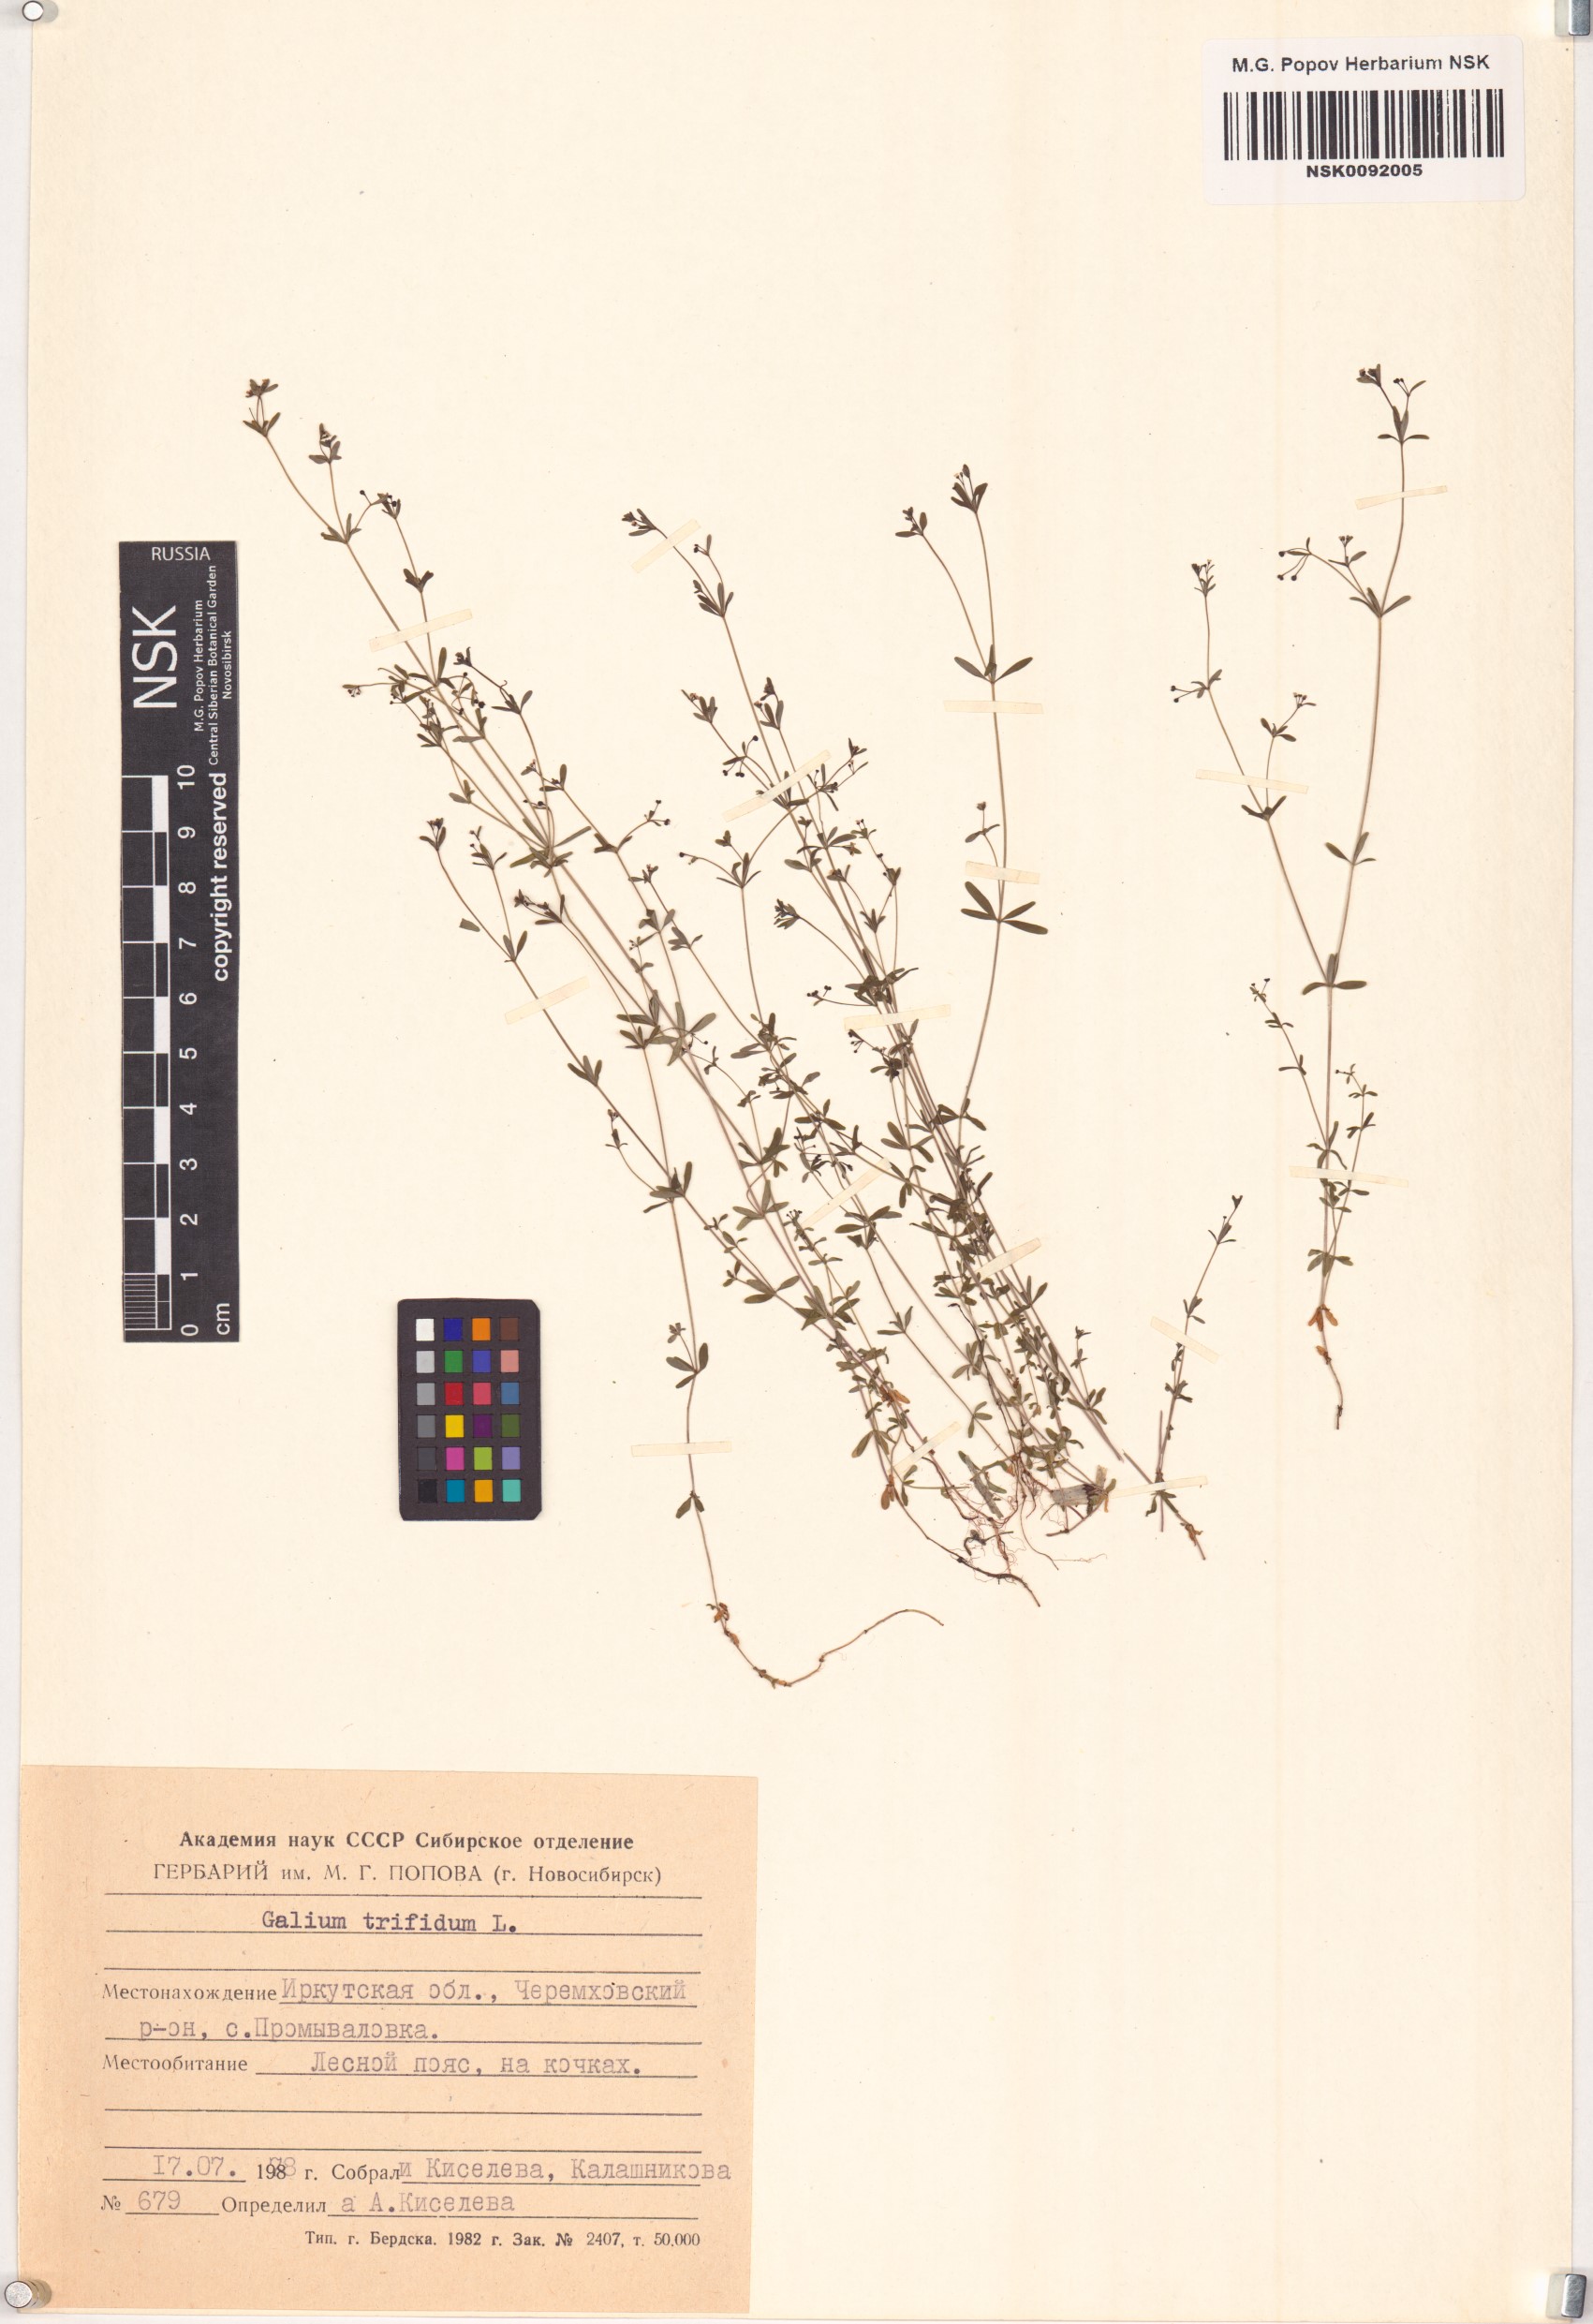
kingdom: Plantae
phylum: Tracheophyta
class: Magnoliopsida
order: Gentianales
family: Rubiaceae
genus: Galium
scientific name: Galium trifidum
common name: Small bedstraw
